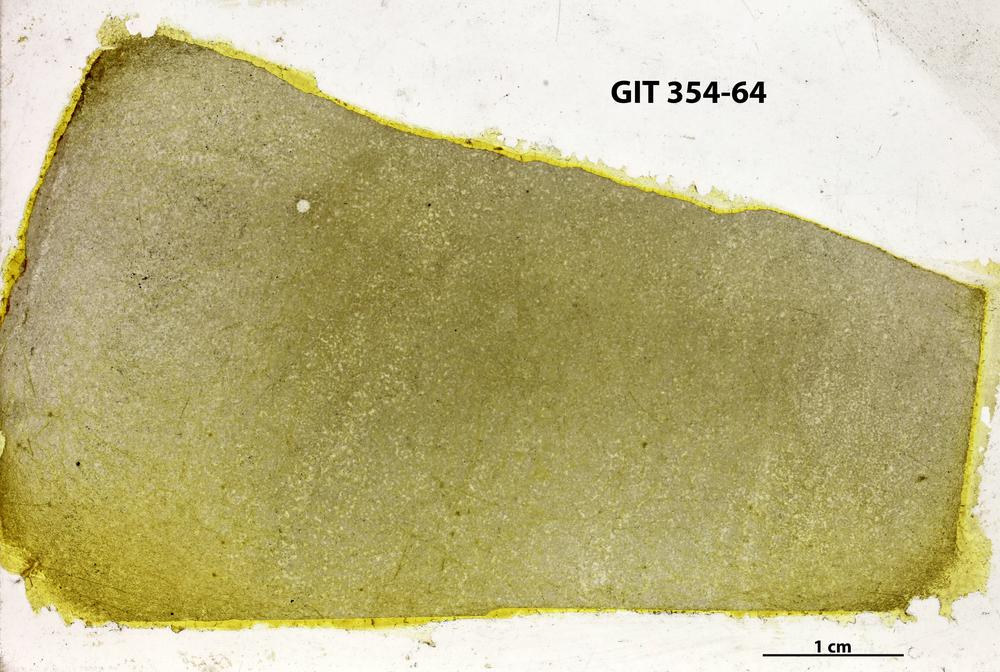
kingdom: Animalia
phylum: Porifera
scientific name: Porifera
